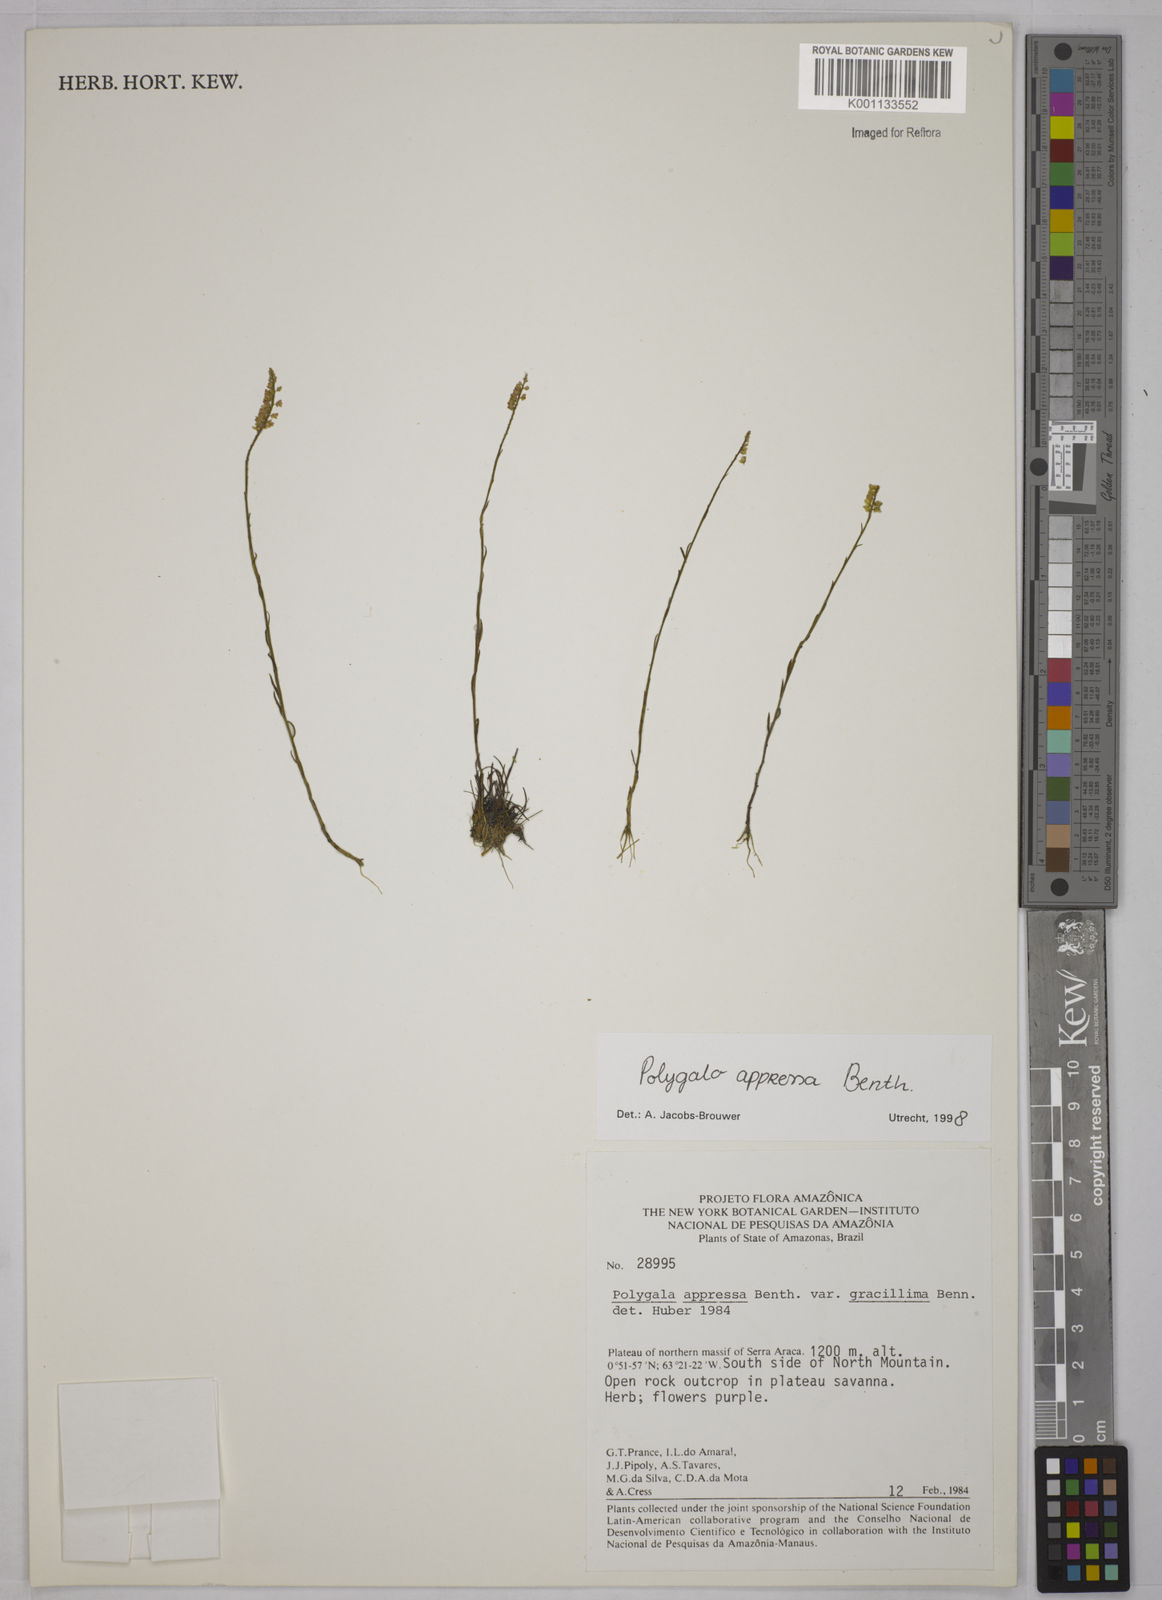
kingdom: Plantae
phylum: Tracheophyta
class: Magnoliopsida
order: Fabales
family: Polygalaceae
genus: Polygala
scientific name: Polygala appressa
